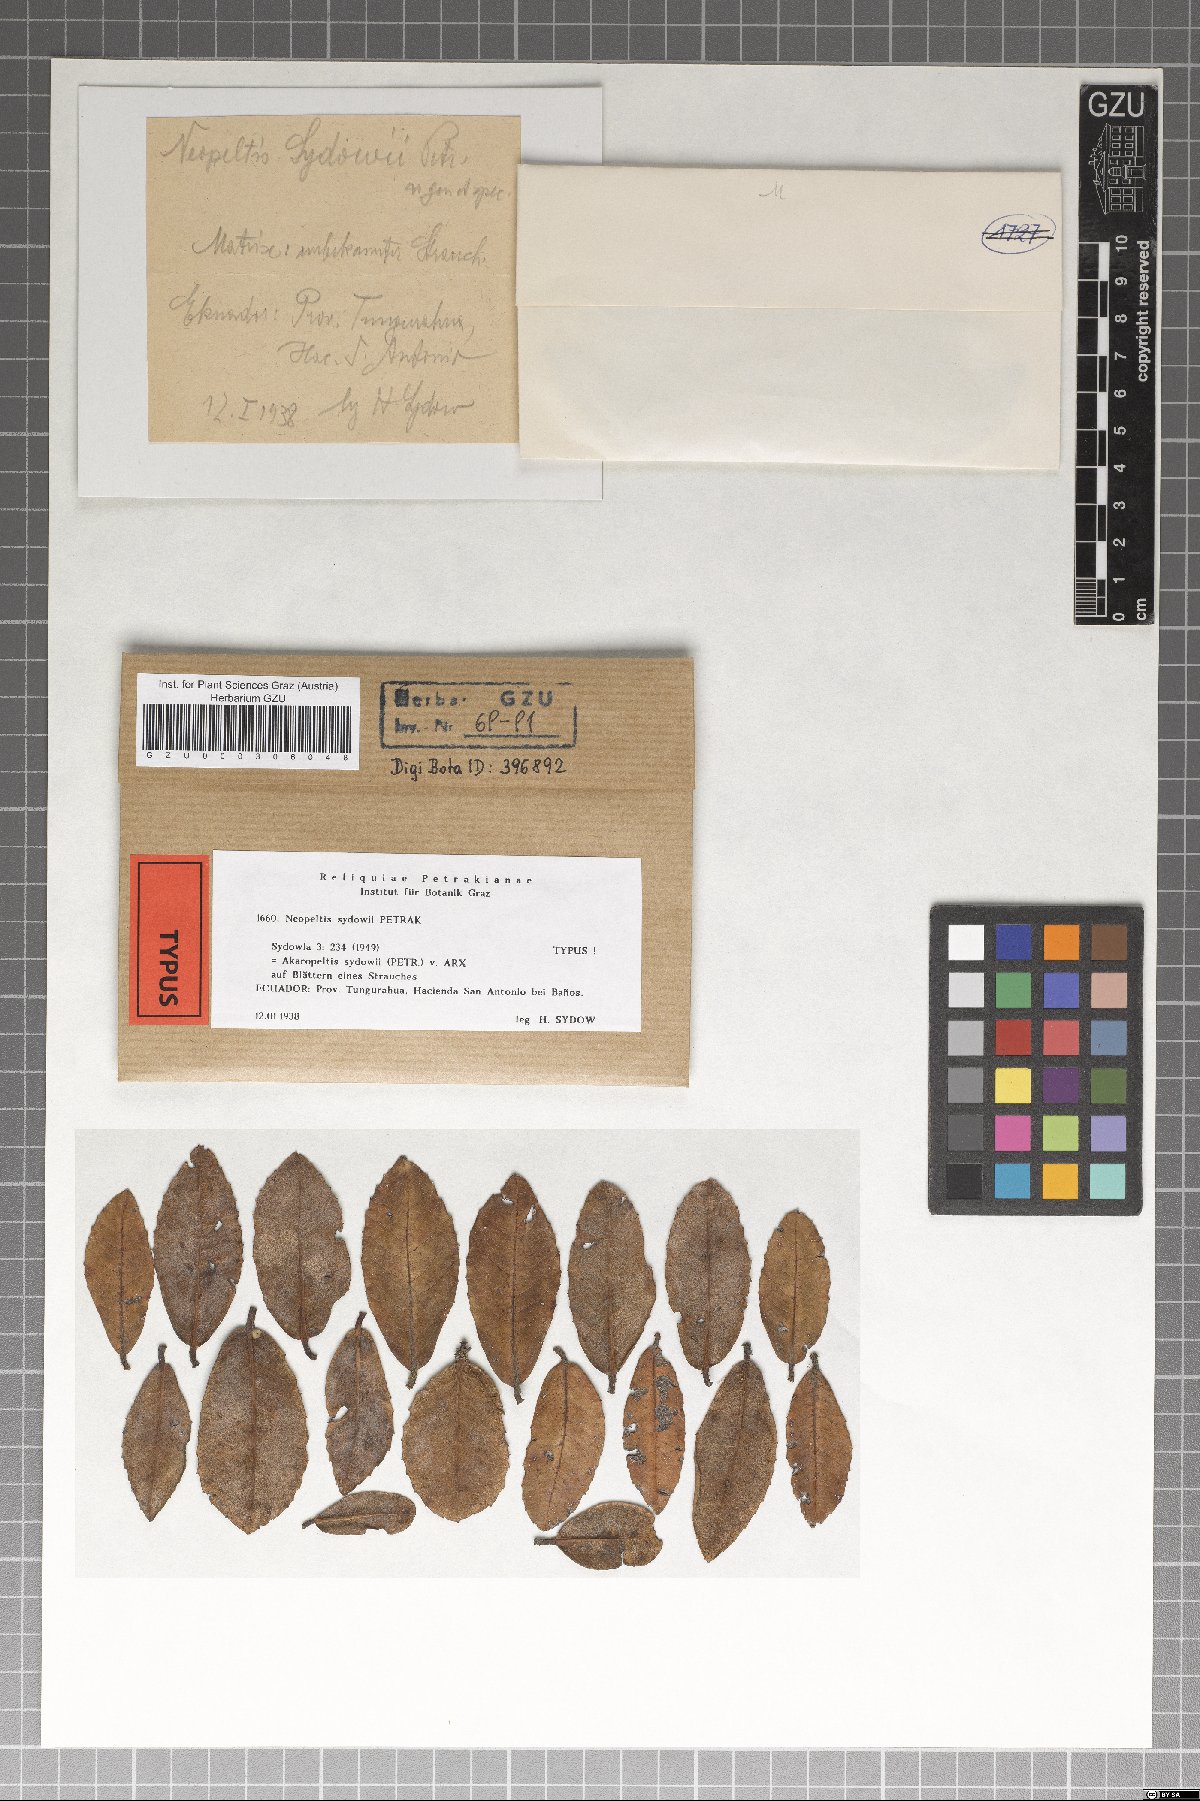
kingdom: Fungi
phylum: Ascomycota
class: Dothideomycetes
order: Microthyriales
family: Micropeltidaceae
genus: Akaropeltis
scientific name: Akaropeltis sydowii
